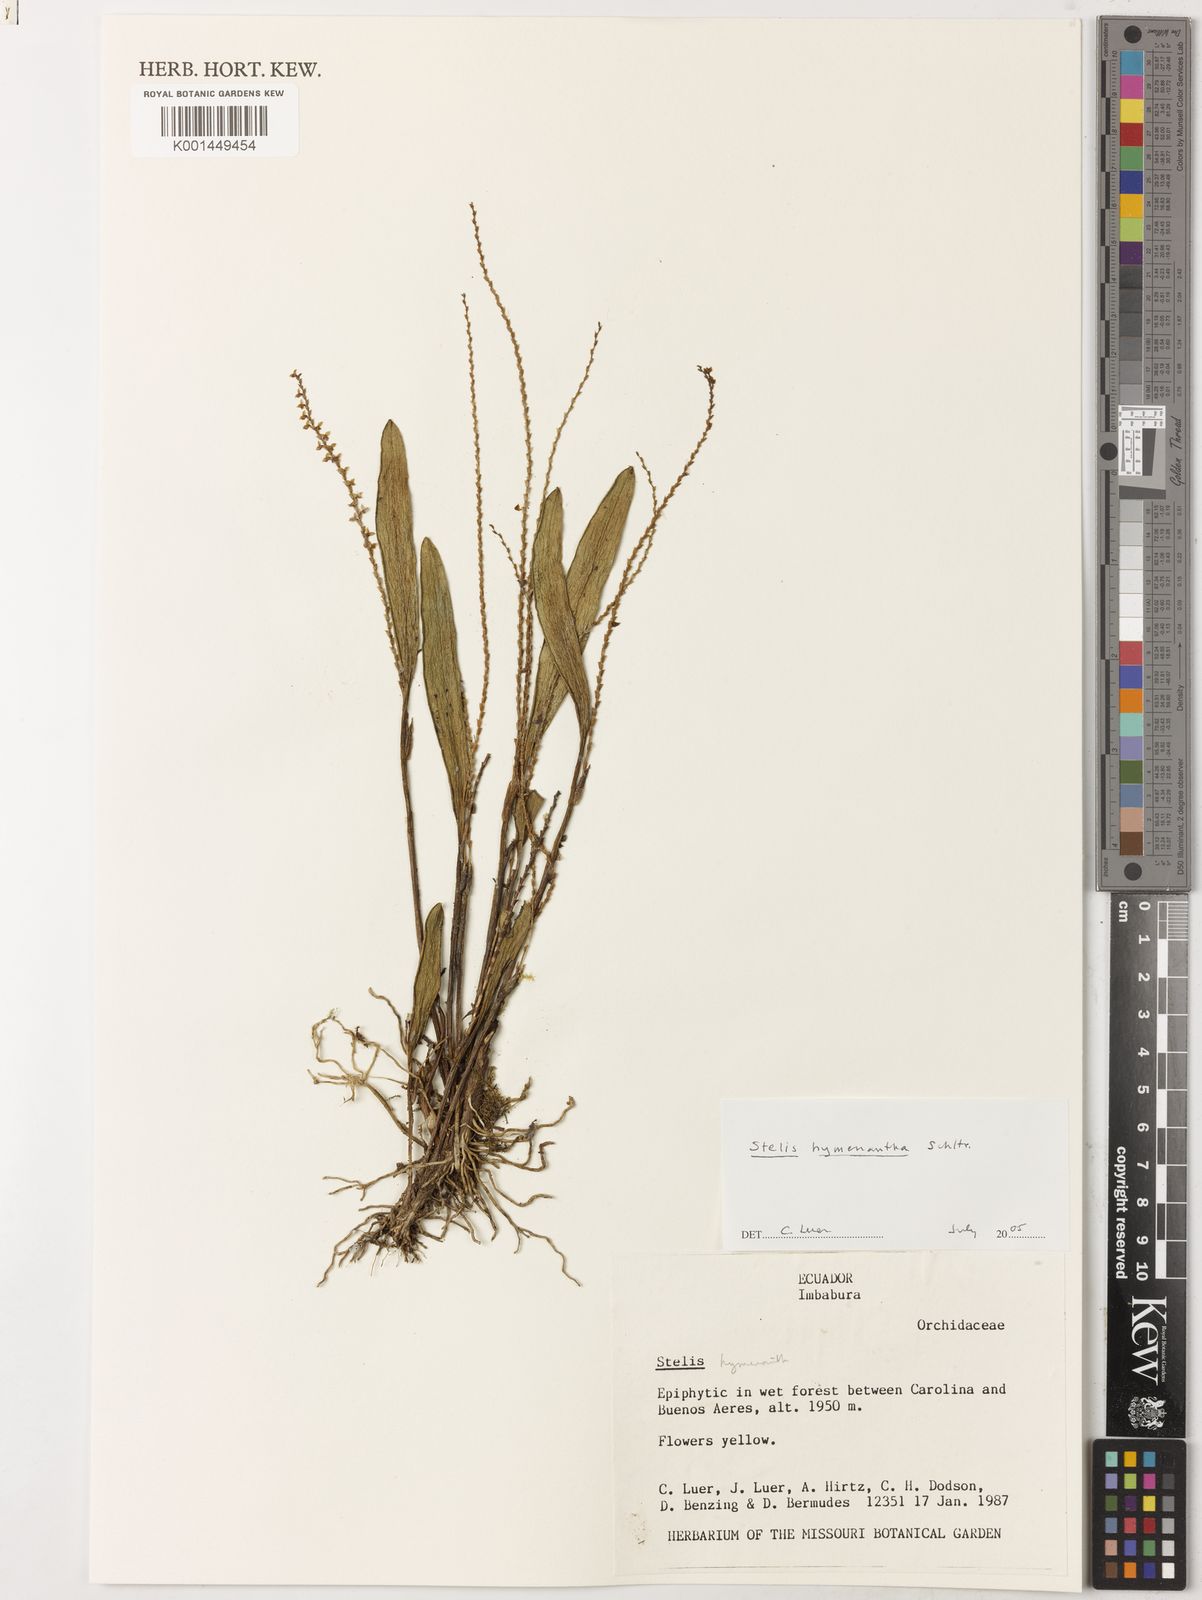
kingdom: Plantae
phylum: Tracheophyta
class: Liliopsida
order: Asparagales
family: Orchidaceae
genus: Stelis
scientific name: Stelis hymenantha
